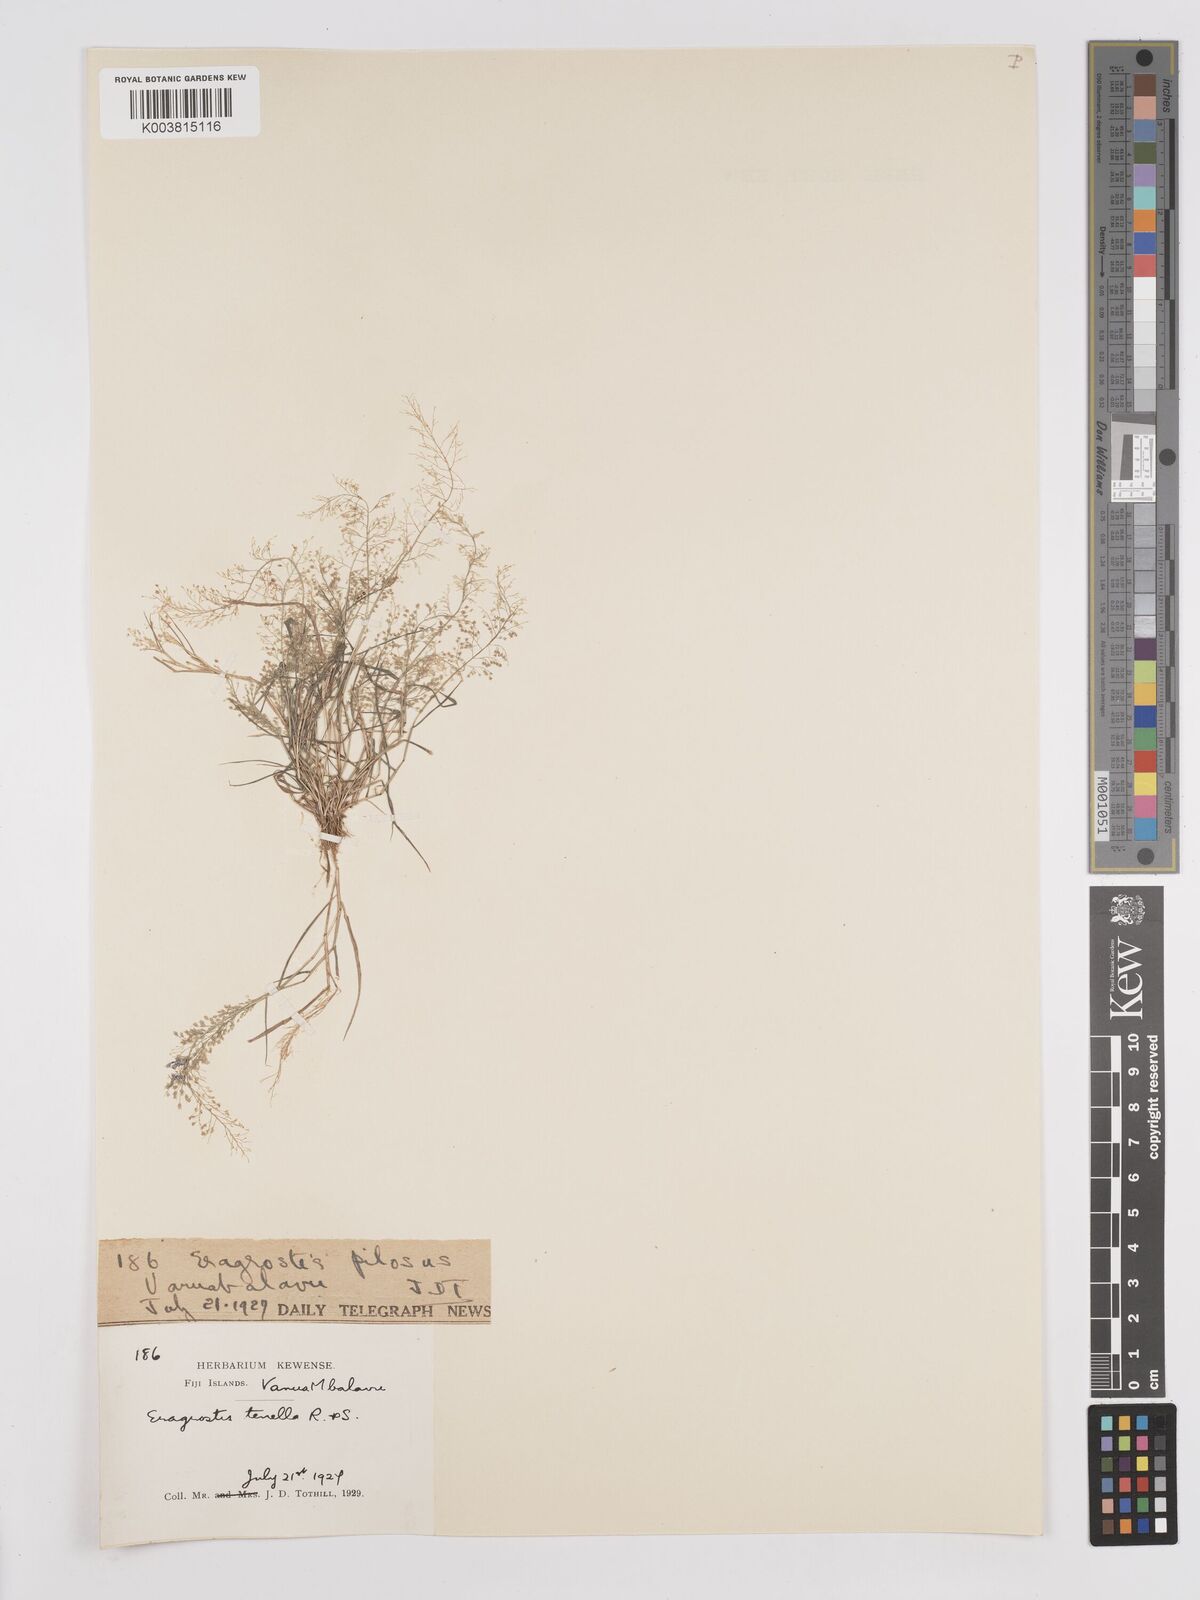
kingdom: Plantae
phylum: Tracheophyta
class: Liliopsida
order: Poales
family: Poaceae
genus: Eragrostis
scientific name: Eragrostis tenella
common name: Japanese lovegrass
